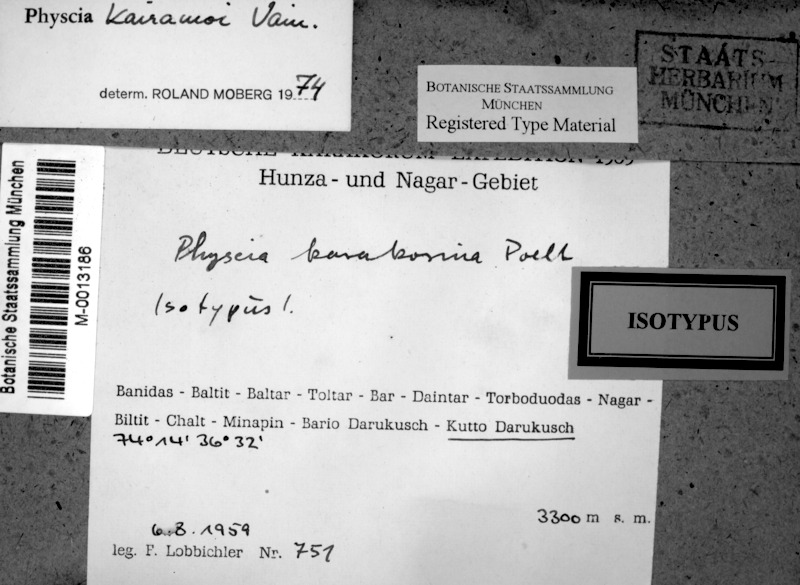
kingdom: Fungi
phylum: Ascomycota
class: Lecanoromycetes
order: Caliciales
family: Physciaceae
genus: Phaeophyscia
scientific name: Phaeophyscia kairamoi
